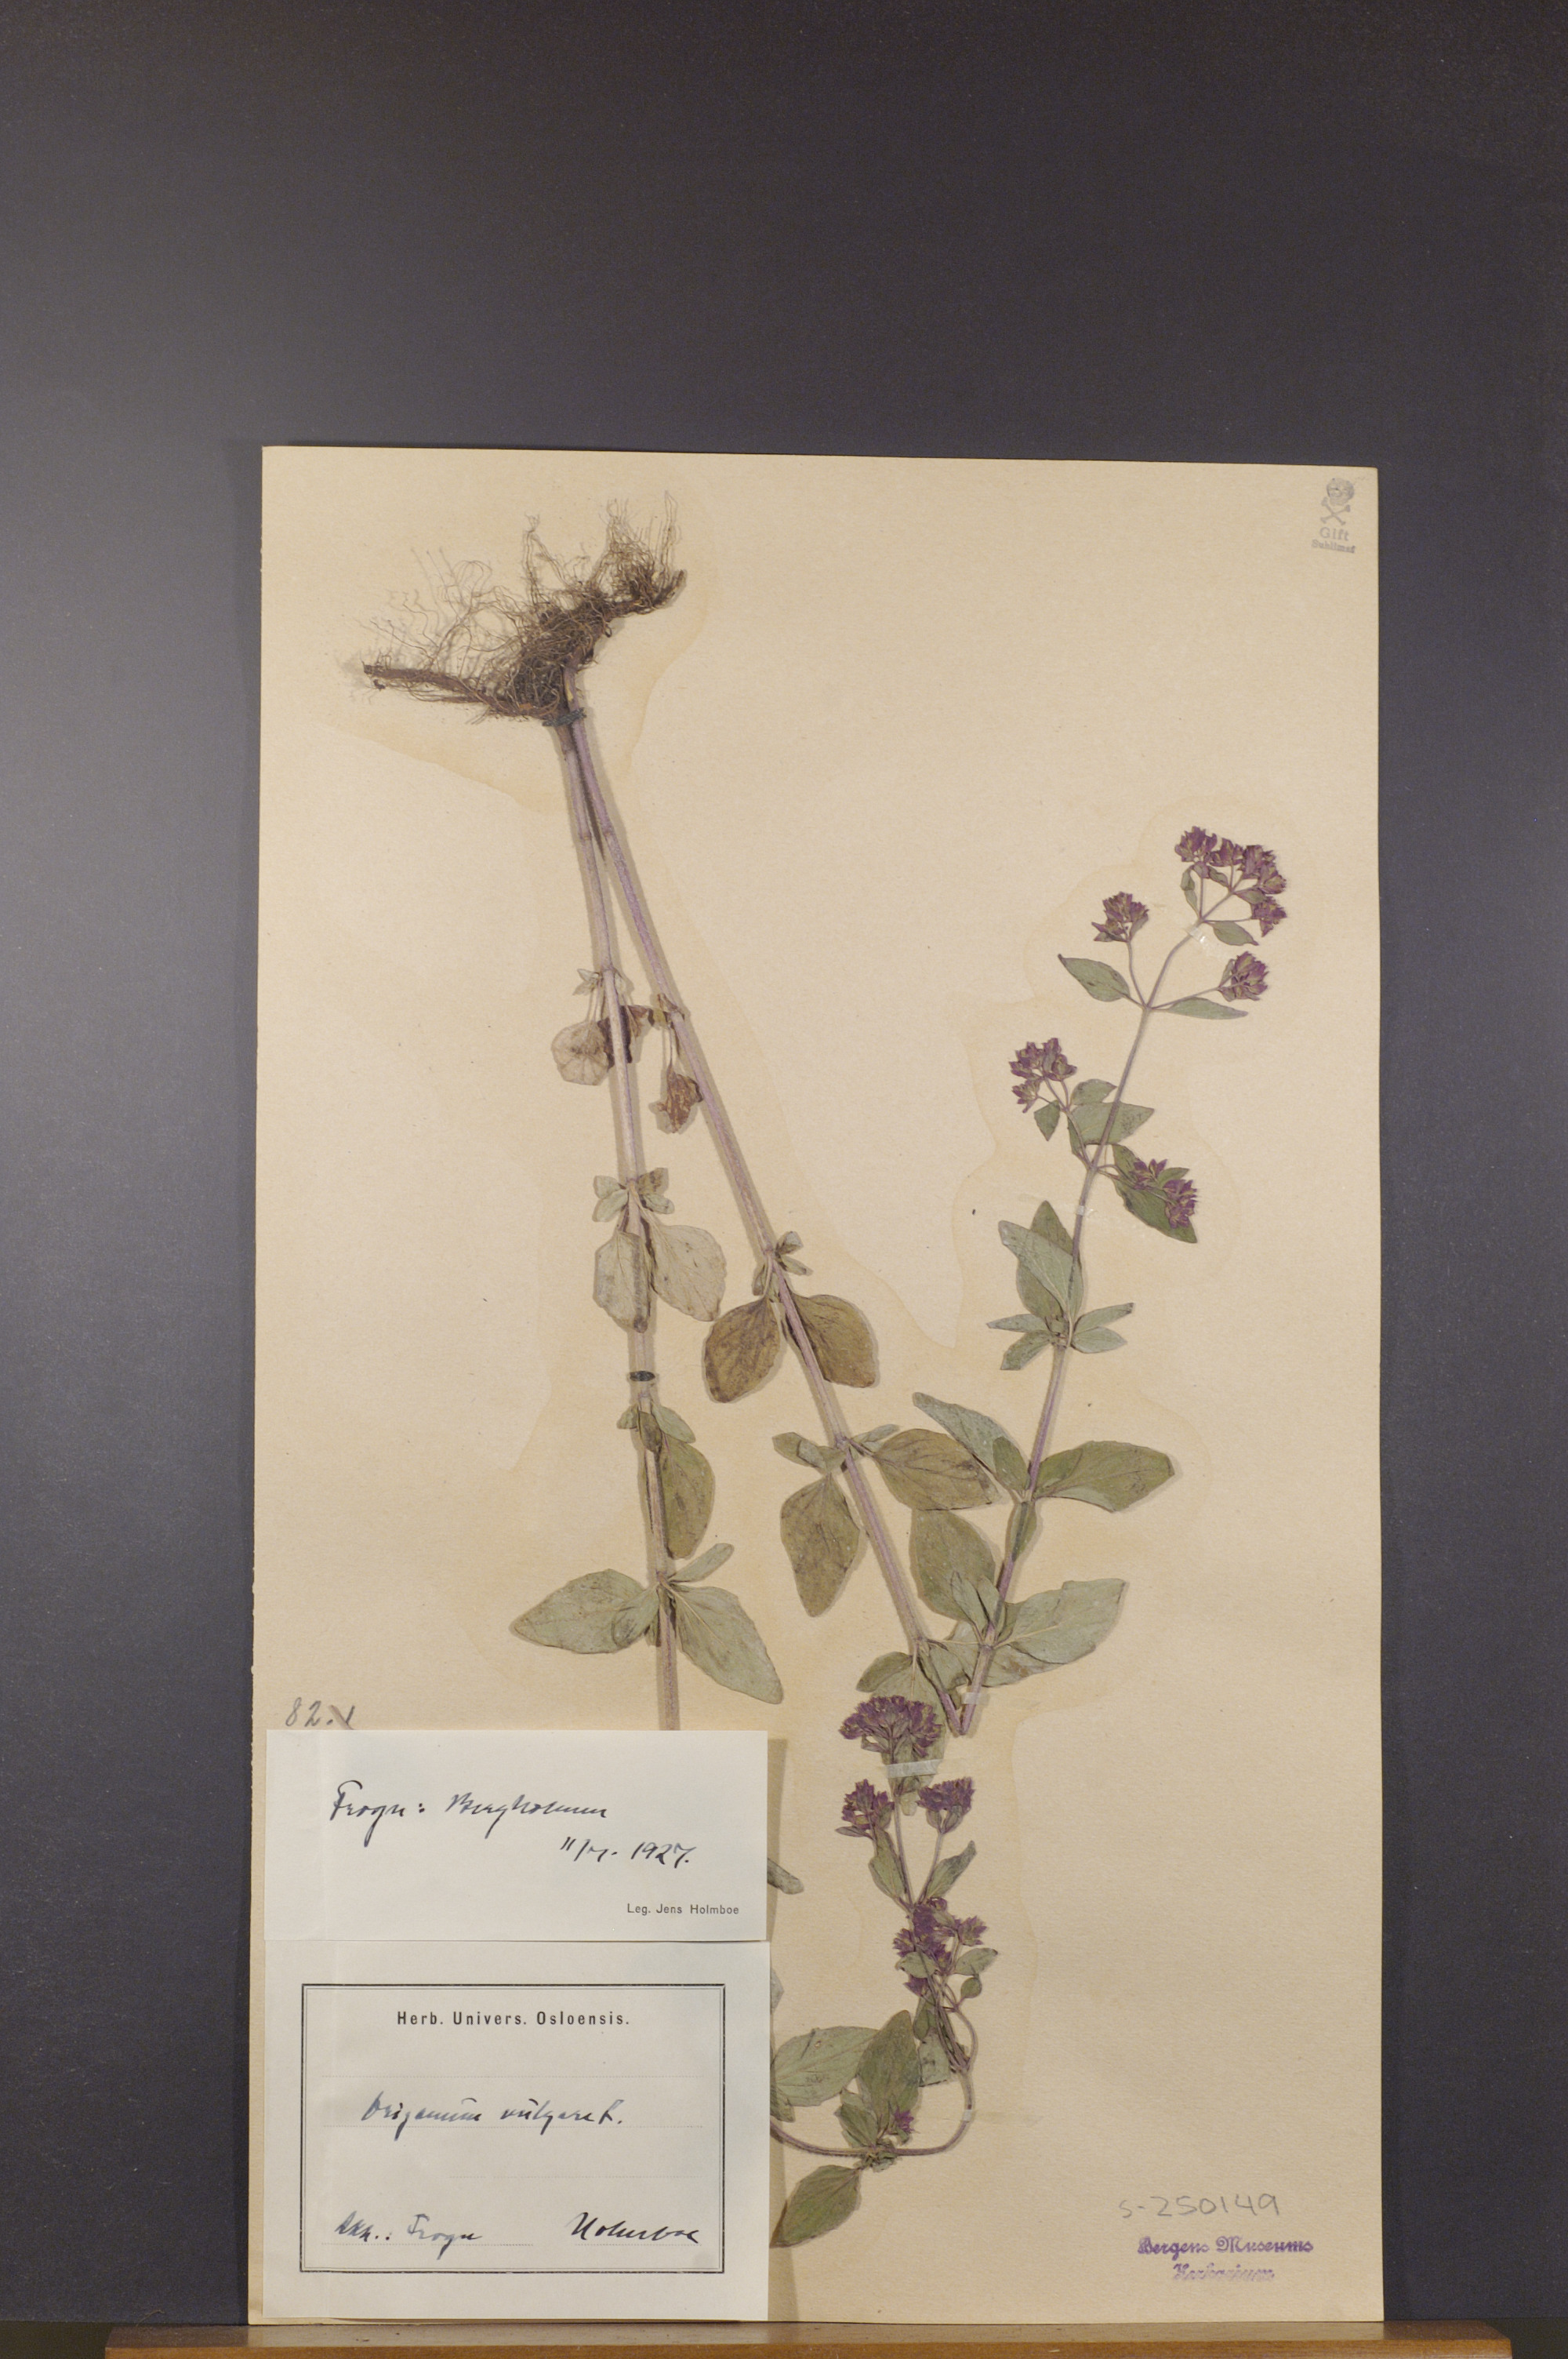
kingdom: Plantae
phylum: Tracheophyta
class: Magnoliopsida
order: Lamiales
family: Lamiaceae
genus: Origanum
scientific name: Origanum vulgare
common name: Wild marjoram
